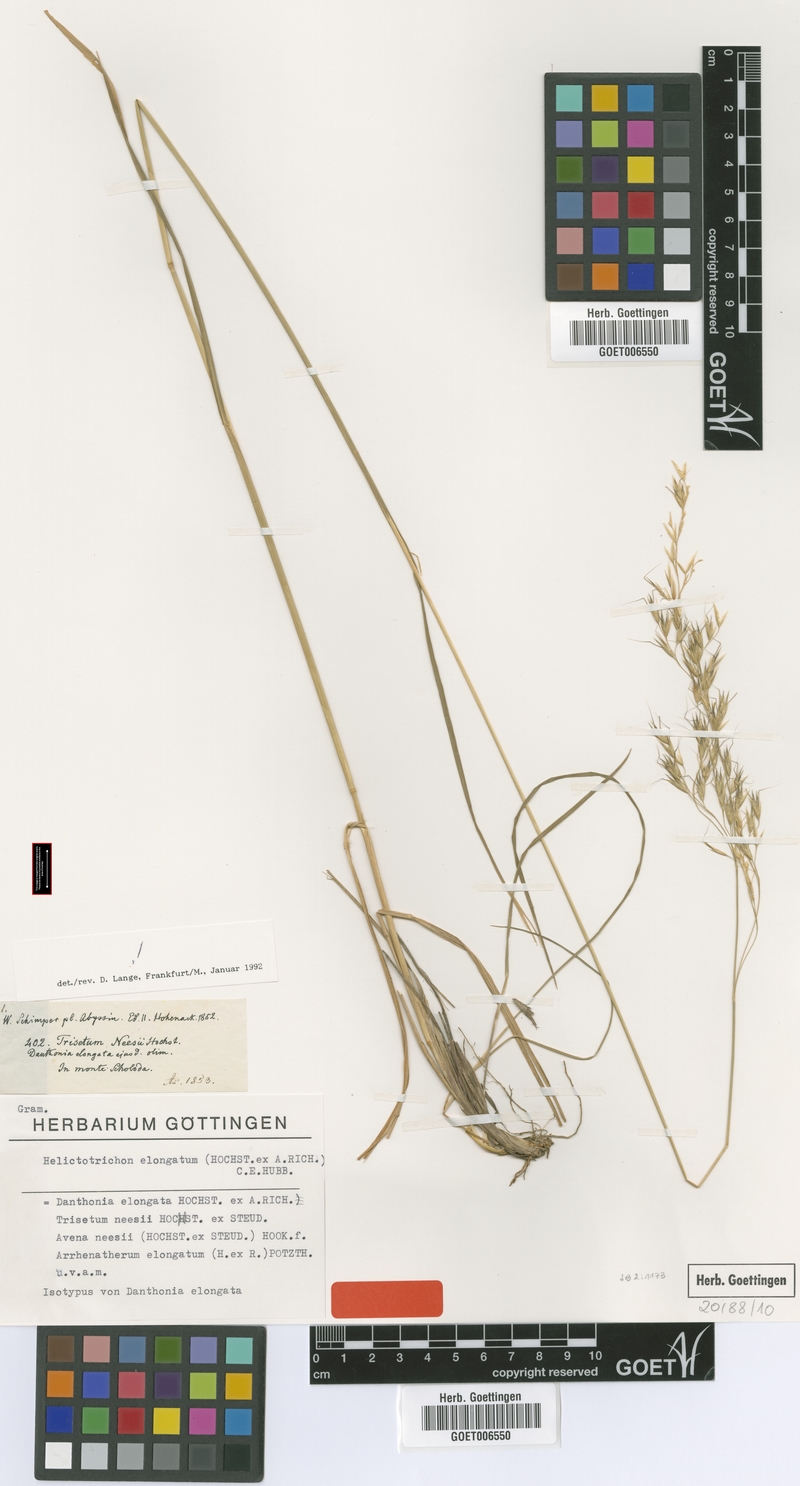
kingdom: Plantae
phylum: Tracheophyta
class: Liliopsida
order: Poales
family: Poaceae
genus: Trisetopsis
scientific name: Trisetopsis elongata
